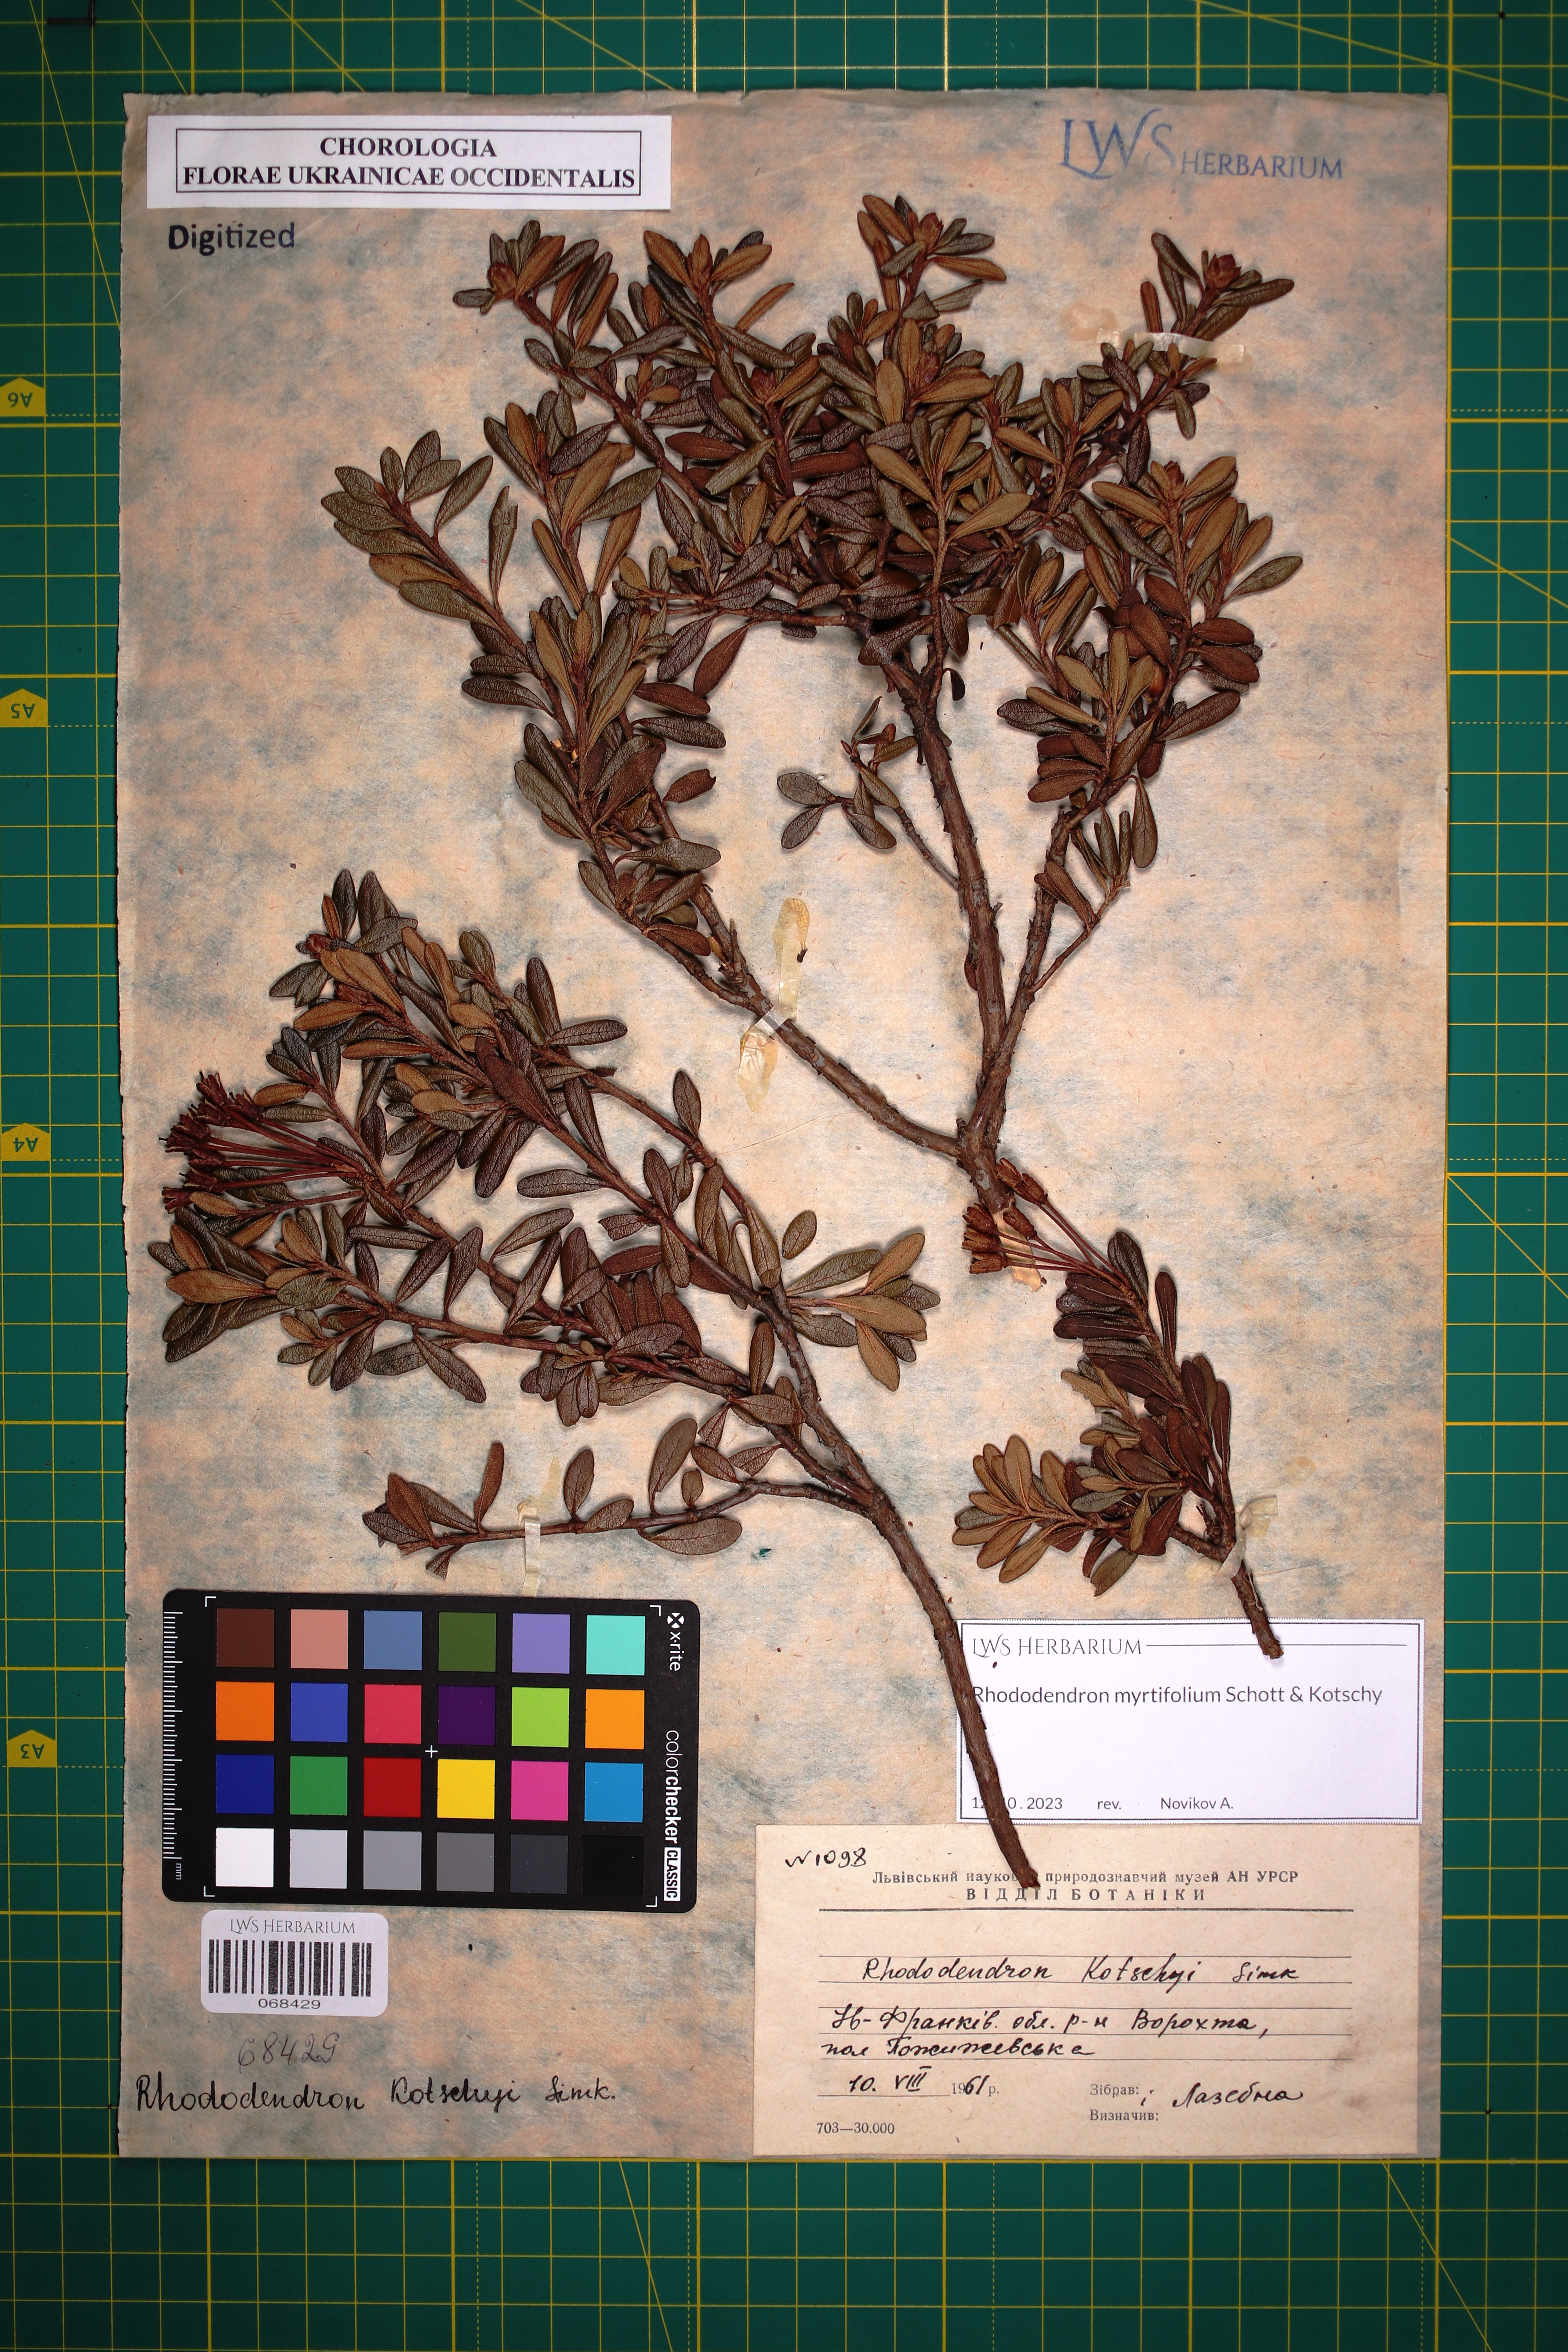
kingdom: Plantae
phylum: Tracheophyta
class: Magnoliopsida
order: Ericales
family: Ericaceae
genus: Rhododendron
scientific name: Rhododendron kotschyi
